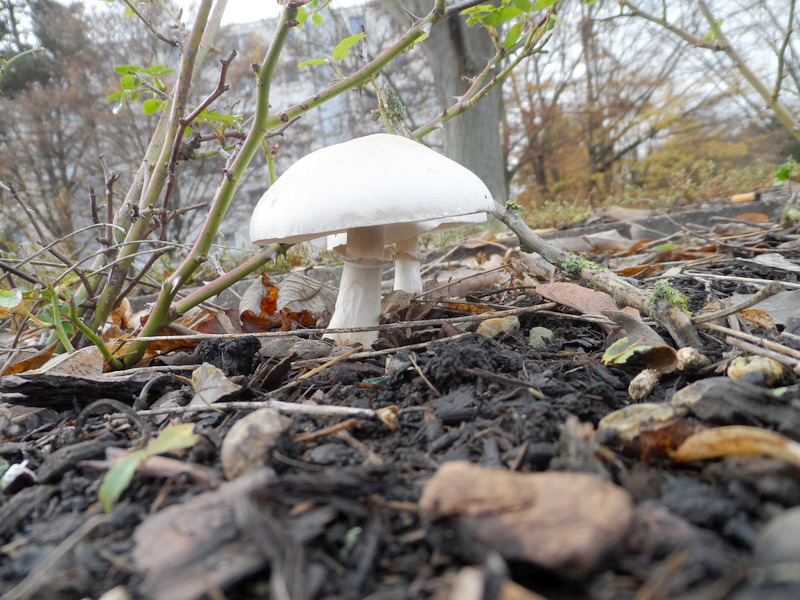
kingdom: Fungi
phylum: Basidiomycota
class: Agaricomycetes
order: Agaricales
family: Agaricaceae
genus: Leucoagaricus
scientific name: Leucoagaricus leucothites
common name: White dapperling
